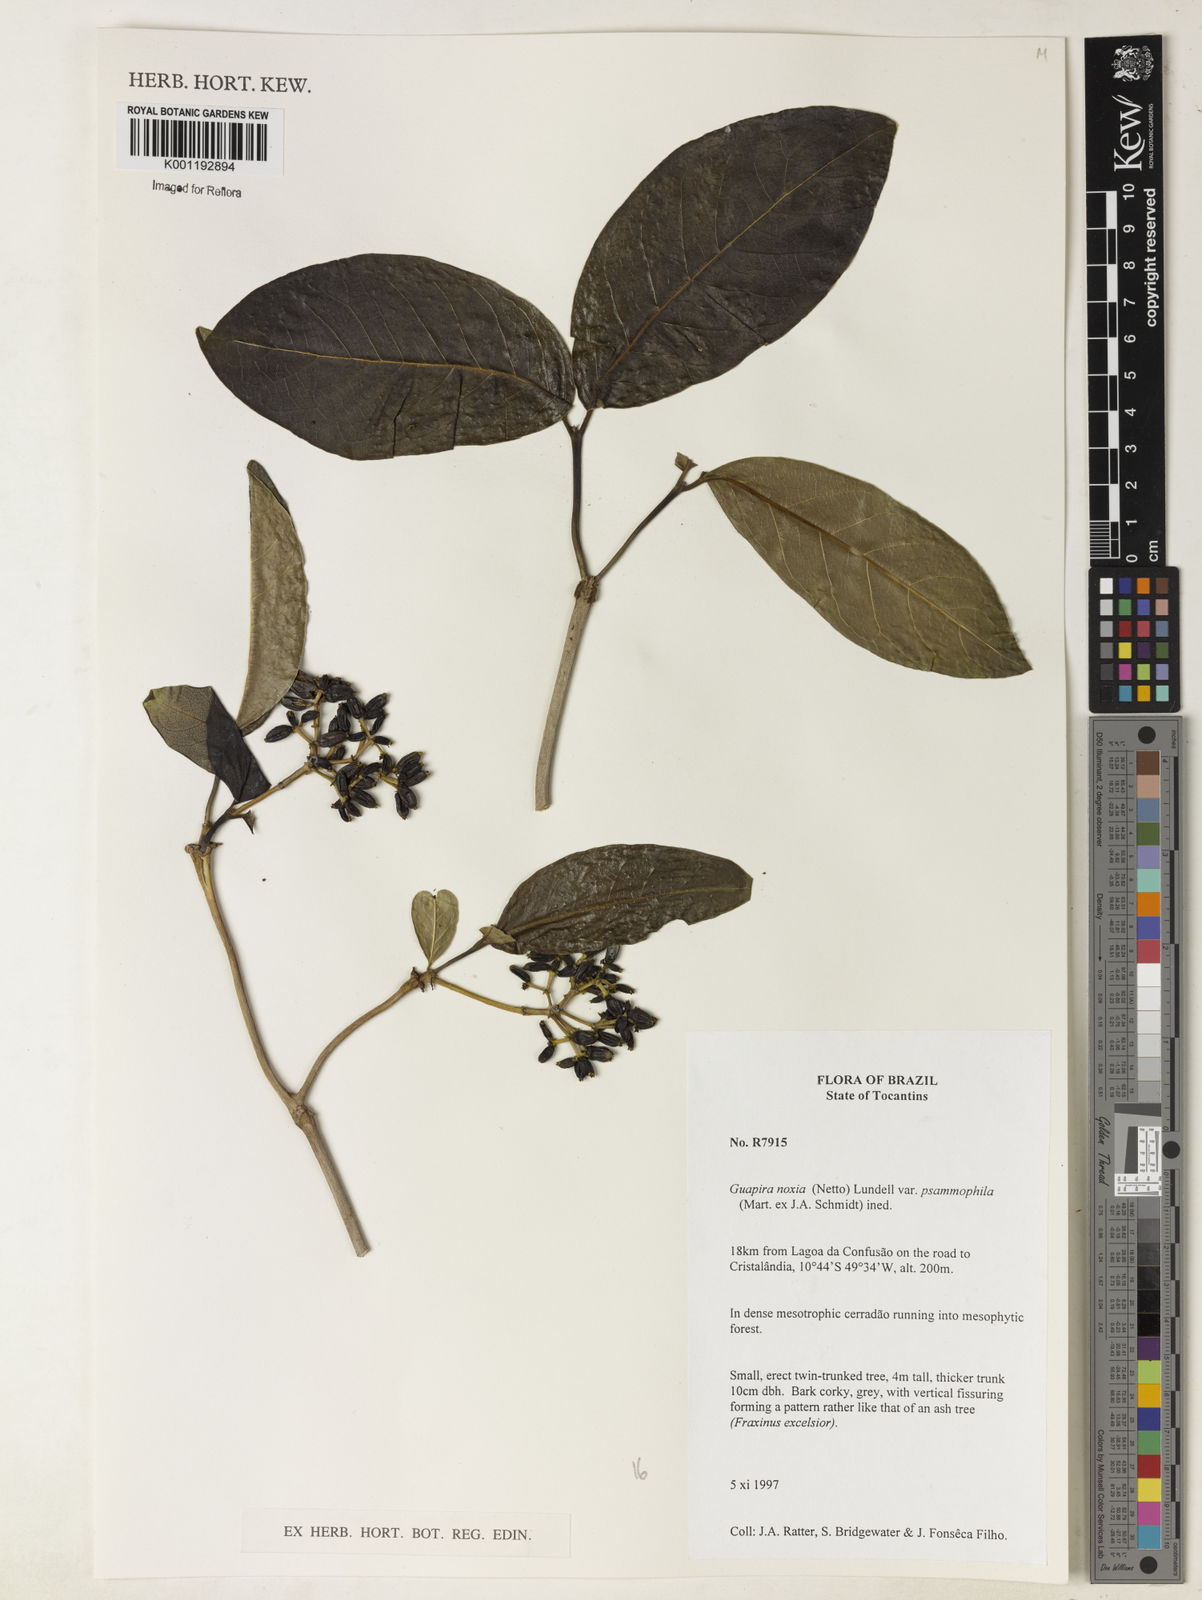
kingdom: Plantae
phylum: Tracheophyta
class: Magnoliopsida
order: Caryophyllales
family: Nyctaginaceae
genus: Guapira
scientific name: Guapira noxia
